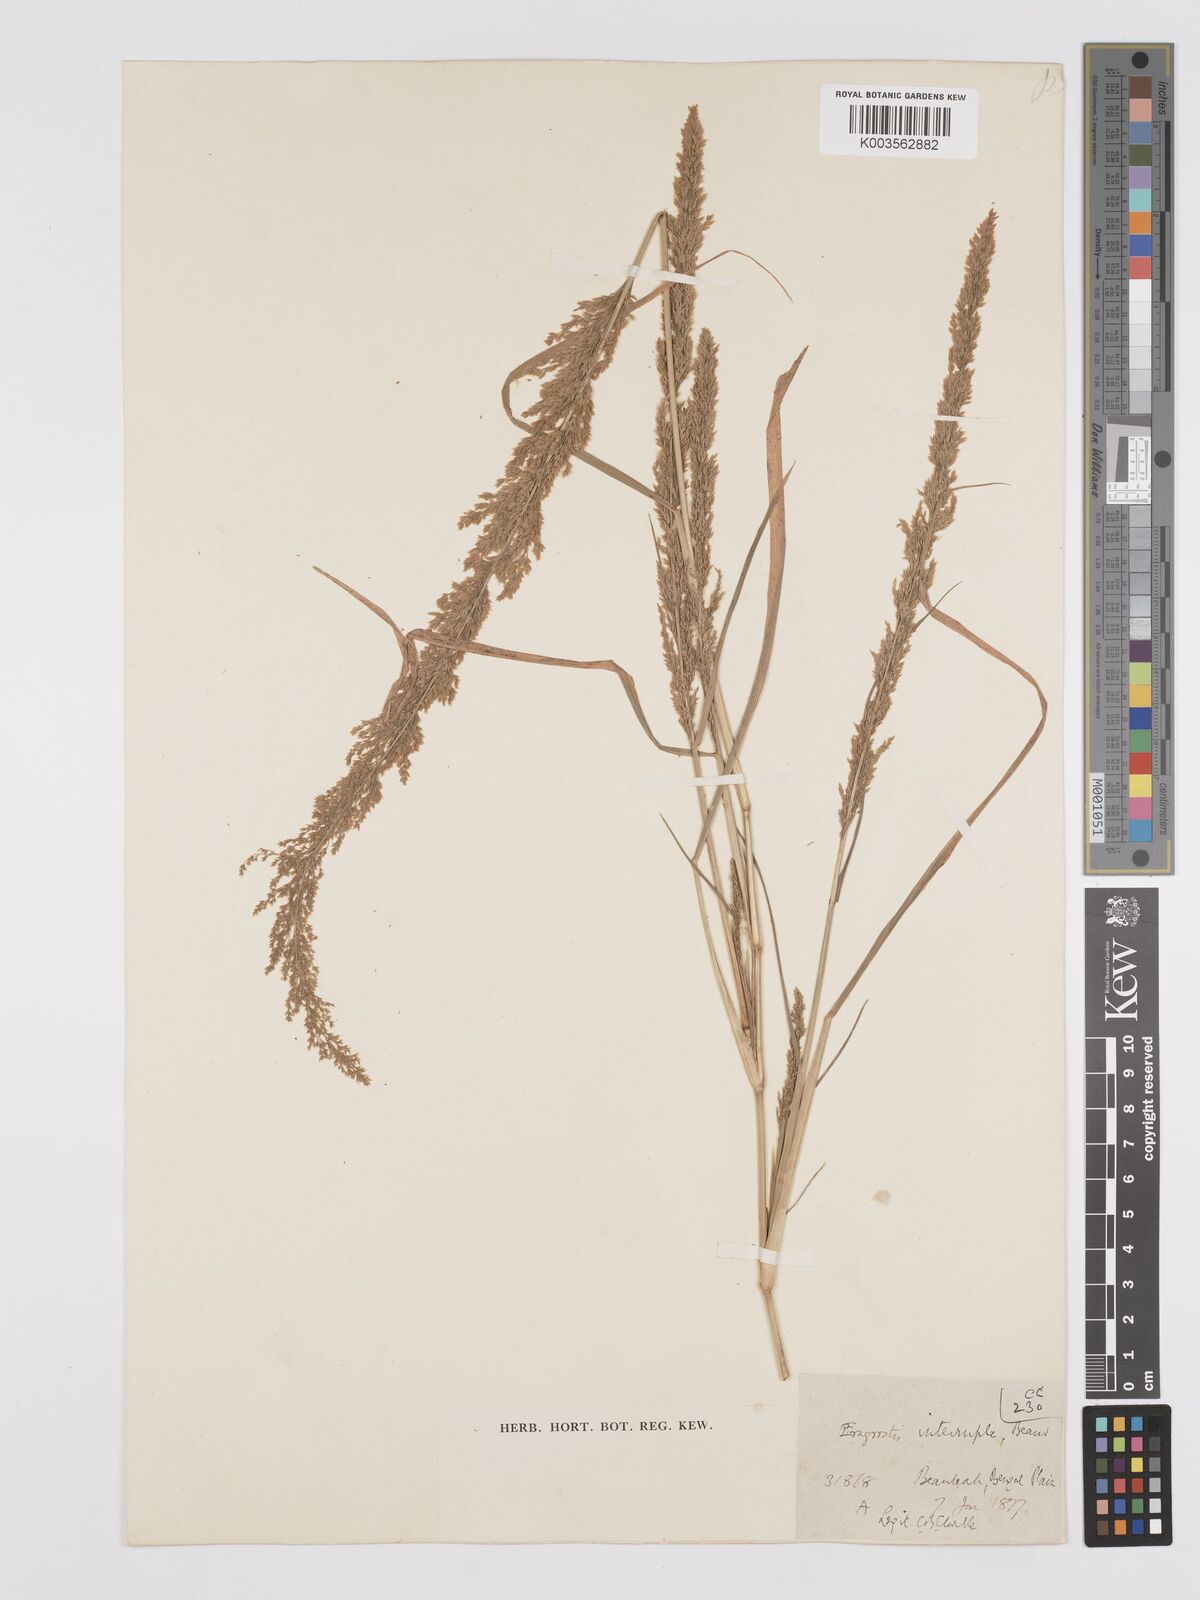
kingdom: Plantae
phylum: Tracheophyta
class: Liliopsida
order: Poales
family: Poaceae
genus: Eragrostis
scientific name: Eragrostis japonica
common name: Pond lovegrass
